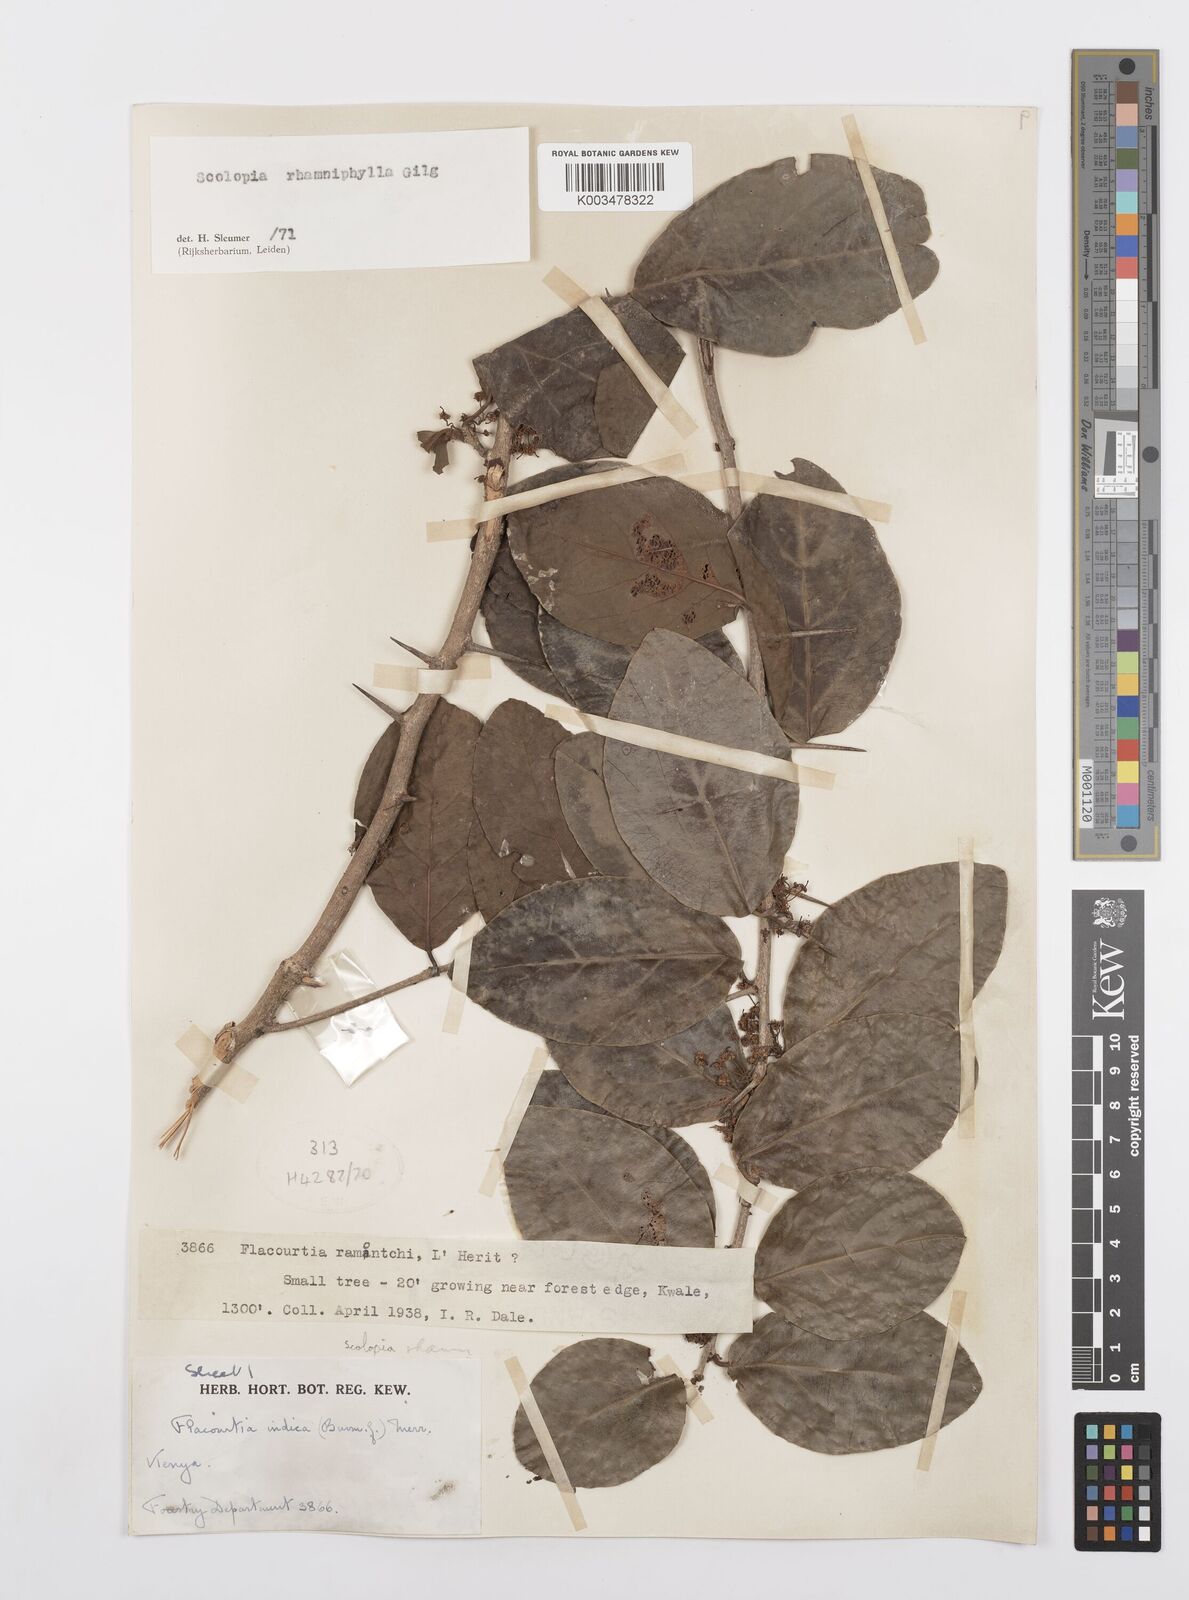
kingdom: Plantae
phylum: Tracheophyta
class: Magnoliopsida
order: Malpighiales
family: Salicaceae
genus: Scolopia
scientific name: Scolopia rhamniphylla
